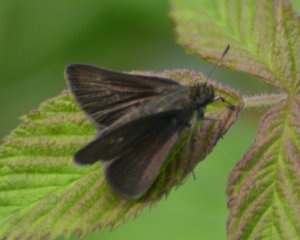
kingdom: Animalia
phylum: Arthropoda
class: Insecta
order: Lepidoptera
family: Hesperiidae
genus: Euphyes
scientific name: Euphyes vestris
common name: Dun Skipper
